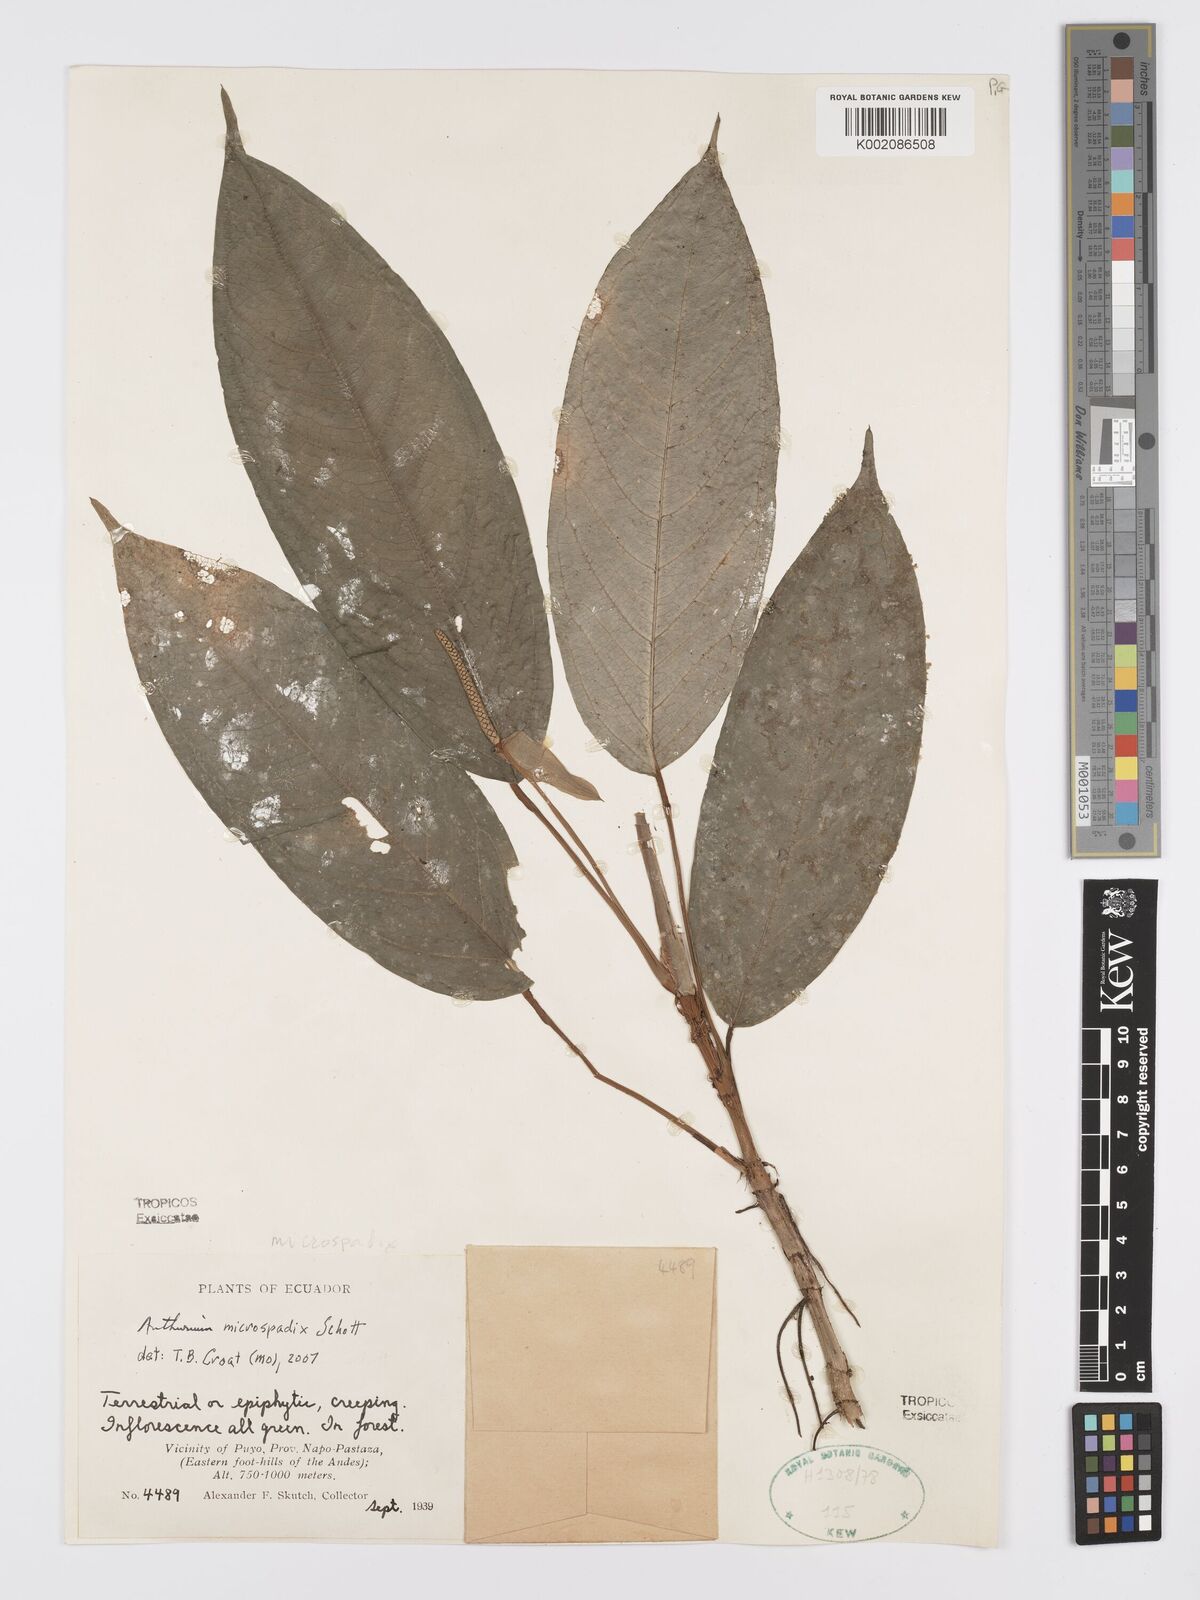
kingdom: Plantae
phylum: Tracheophyta
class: Liliopsida
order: Alismatales
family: Araceae
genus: Anthurium
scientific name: Anthurium microspadix
